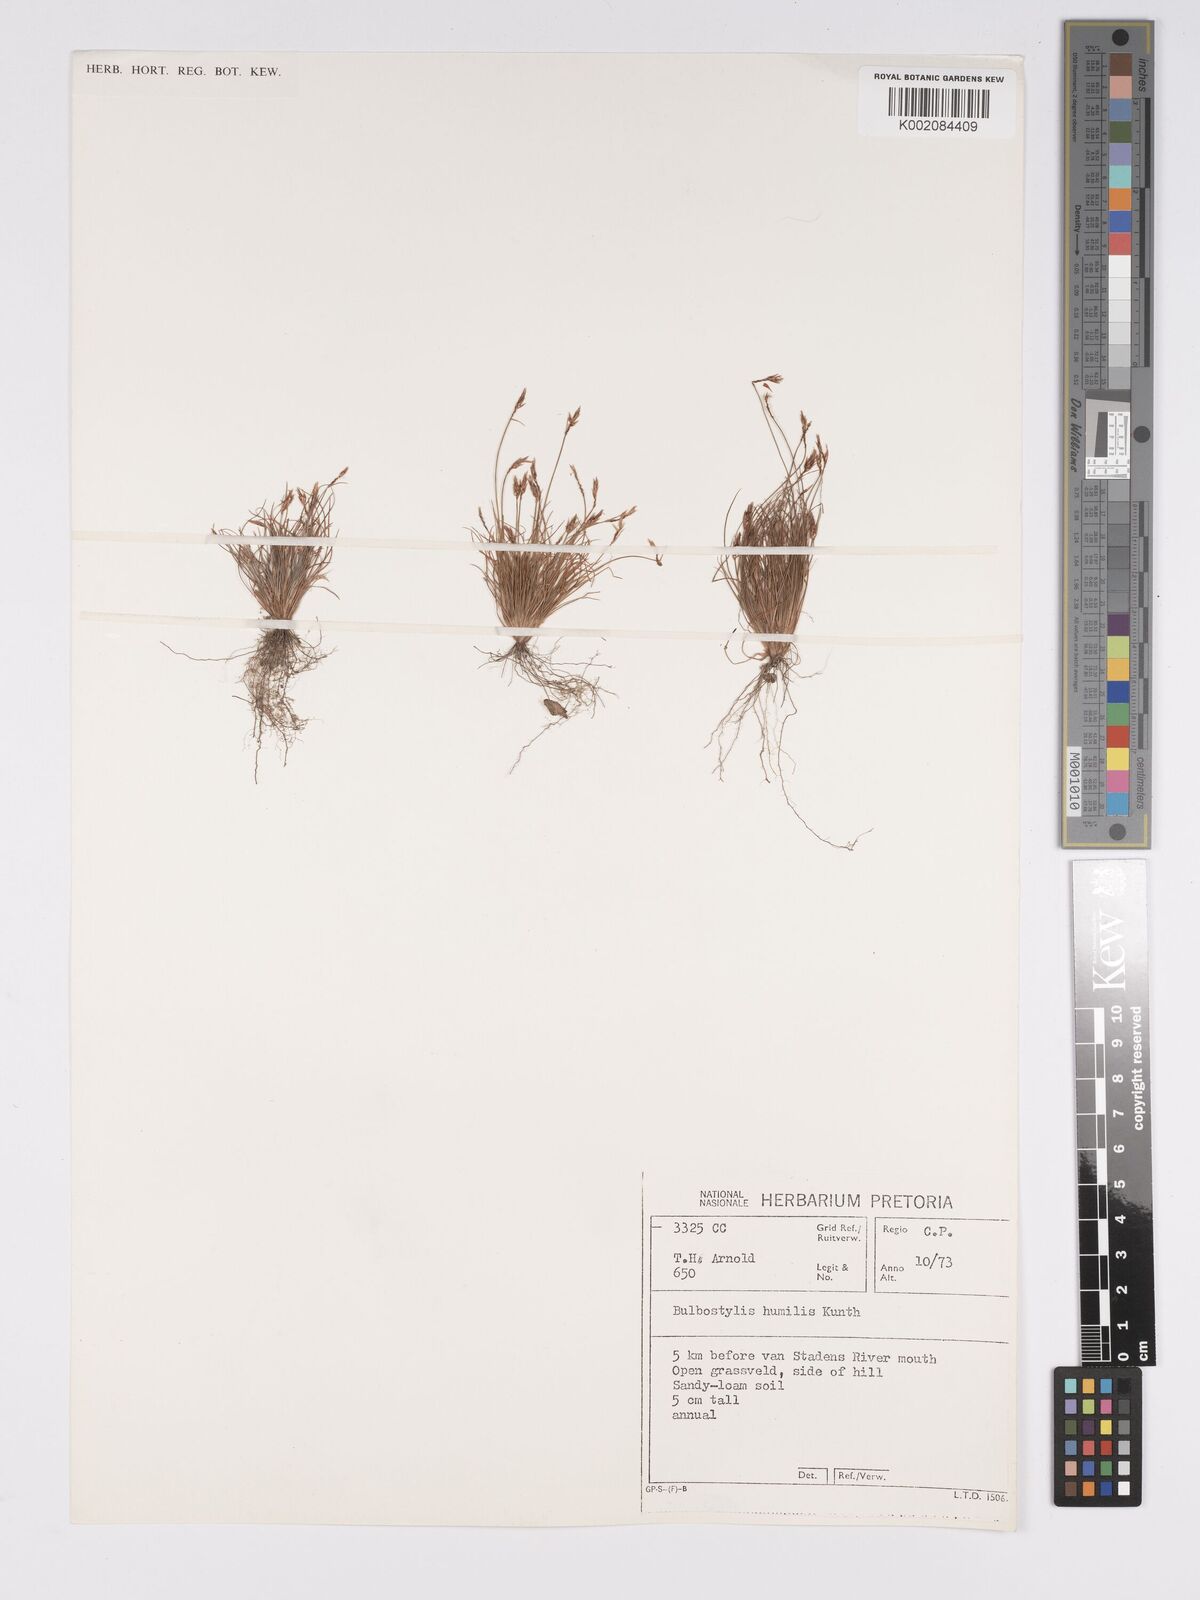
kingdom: Plantae
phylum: Tracheophyta
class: Liliopsida
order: Poales
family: Cyperaceae
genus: Bulbostylis
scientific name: Bulbostylis humilis
